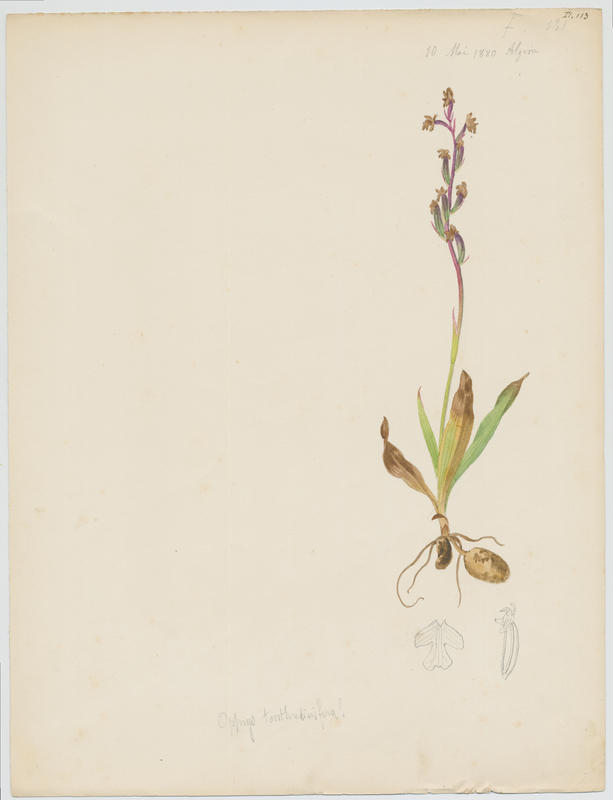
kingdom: Plantae
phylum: Tracheophyta
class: Liliopsida
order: Asparagales
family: Orchidaceae
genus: Ophrys
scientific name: Ophrys tenthredinifera
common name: Sawfly orchid
